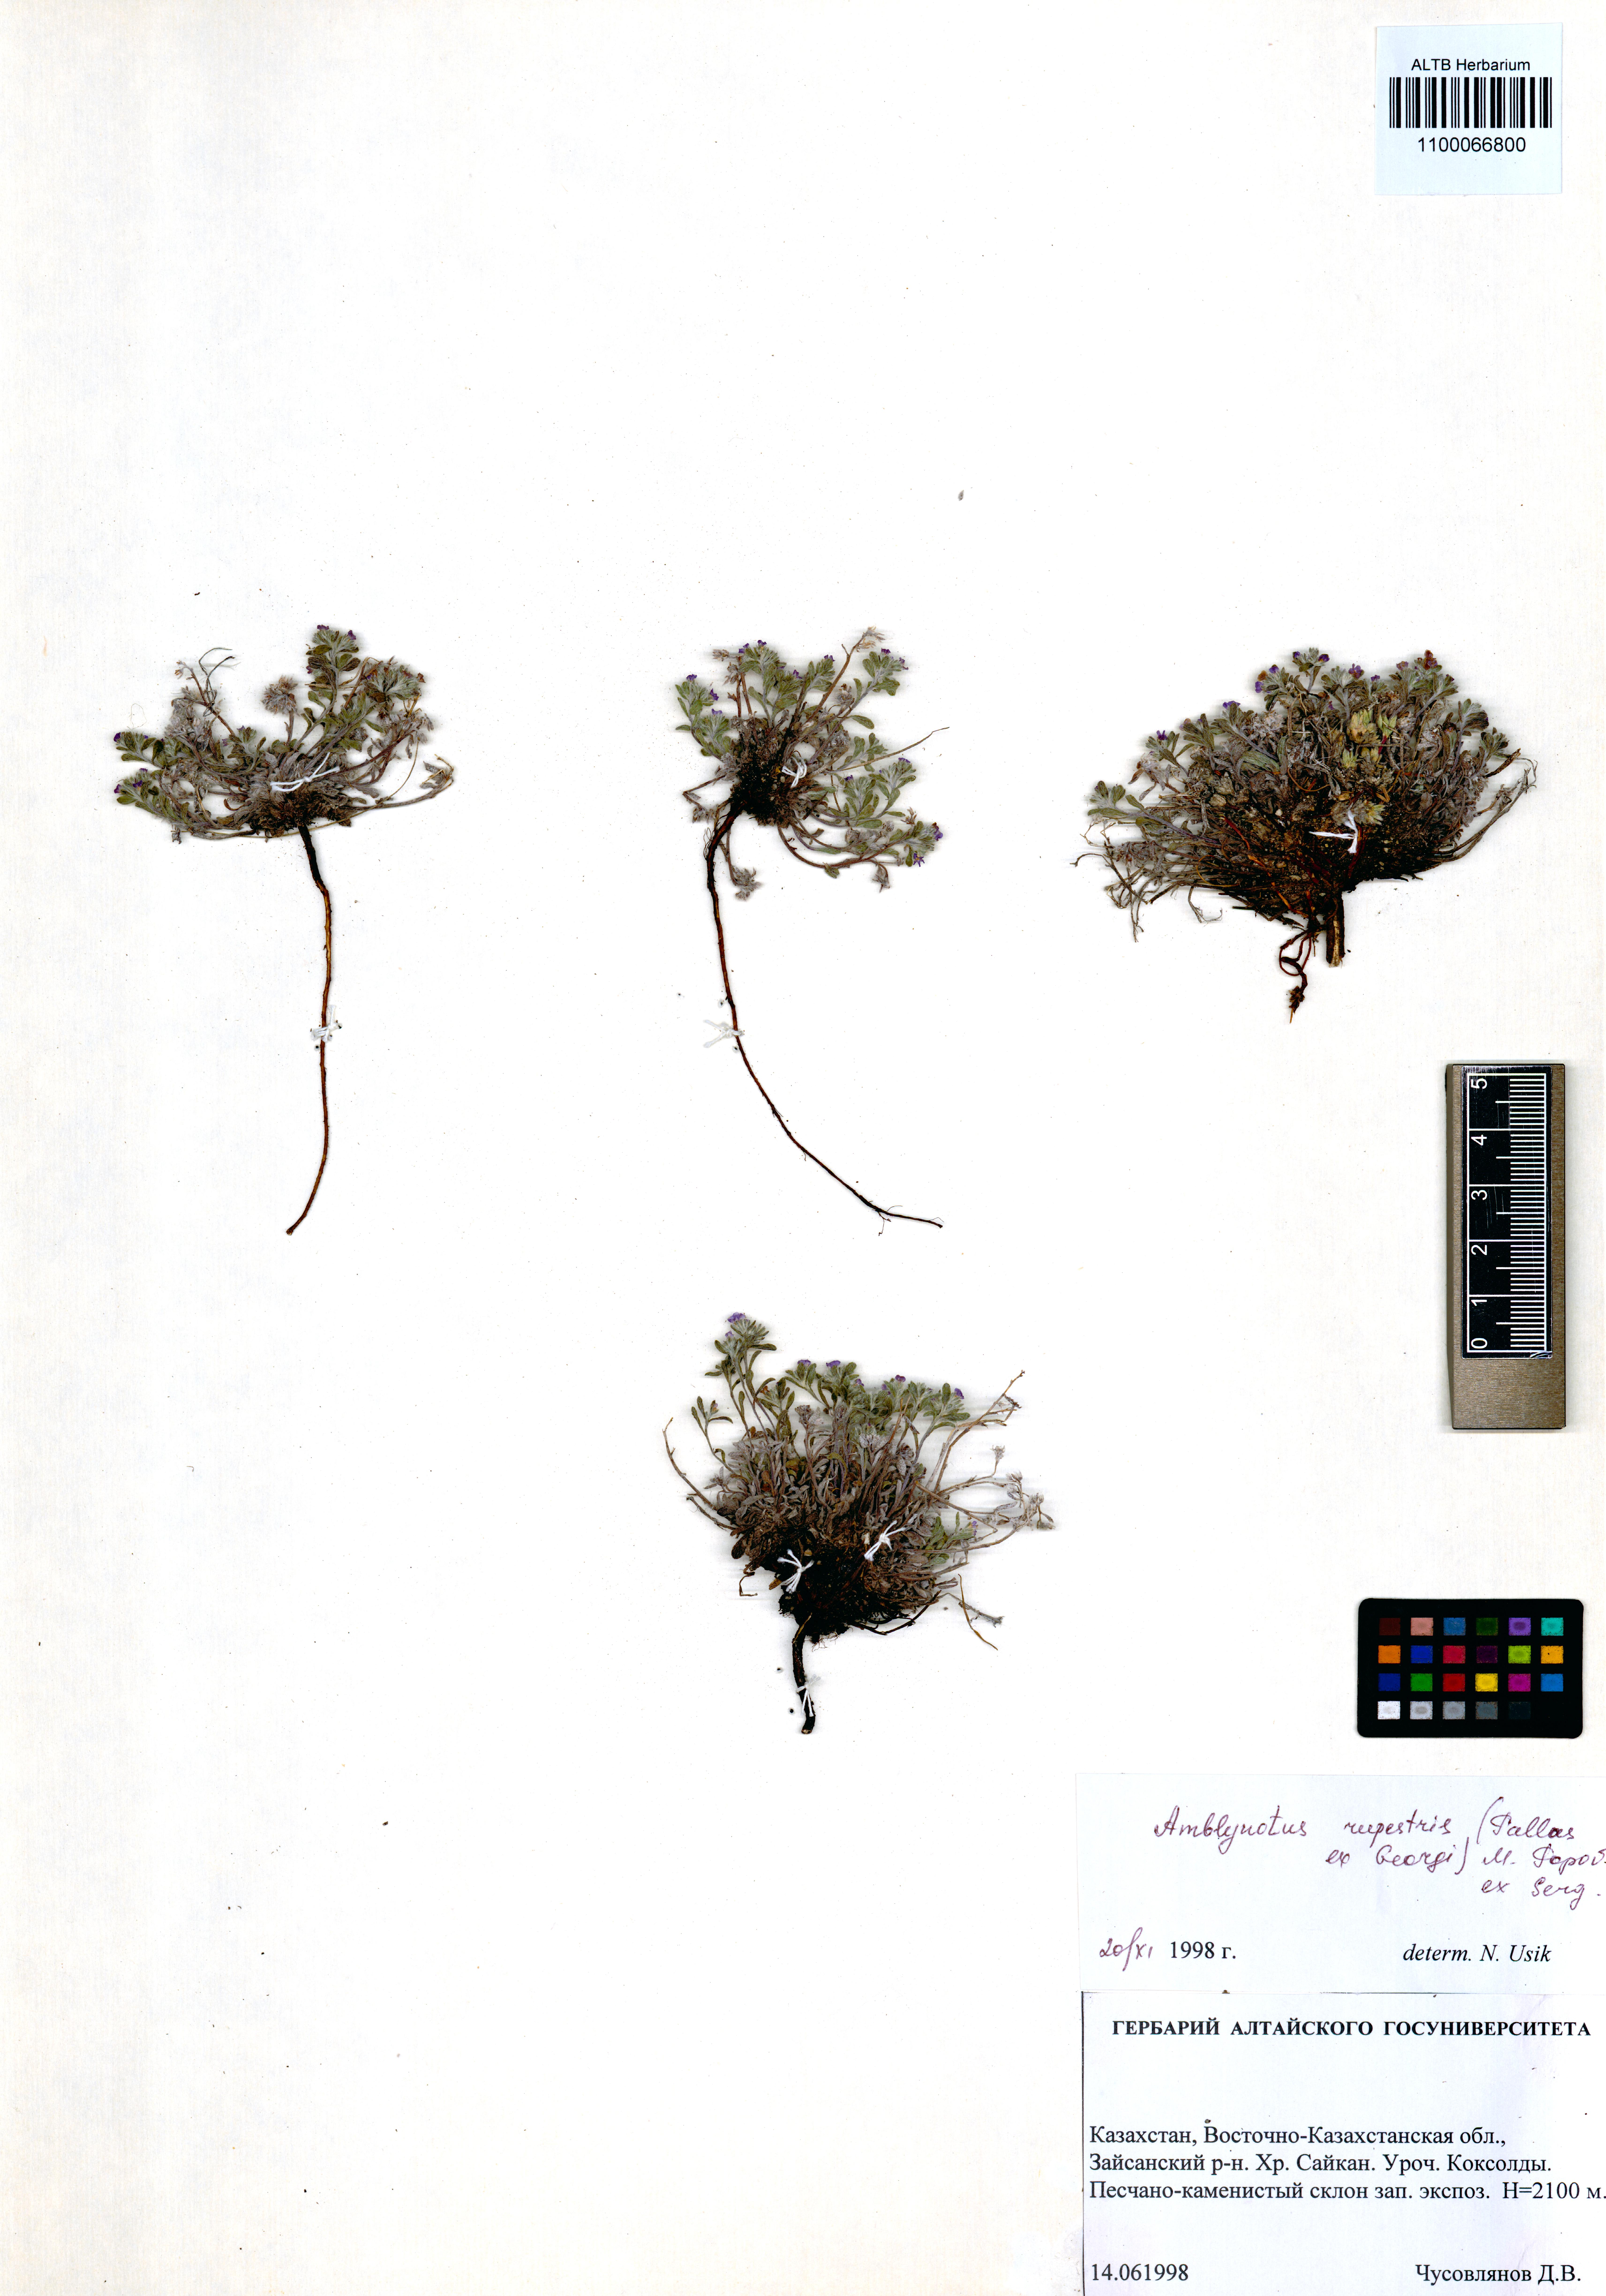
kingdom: Plantae
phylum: Tracheophyta
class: Magnoliopsida
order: Boraginales
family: Boraginaceae
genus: Eritrichium
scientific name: Eritrichium rupestre
